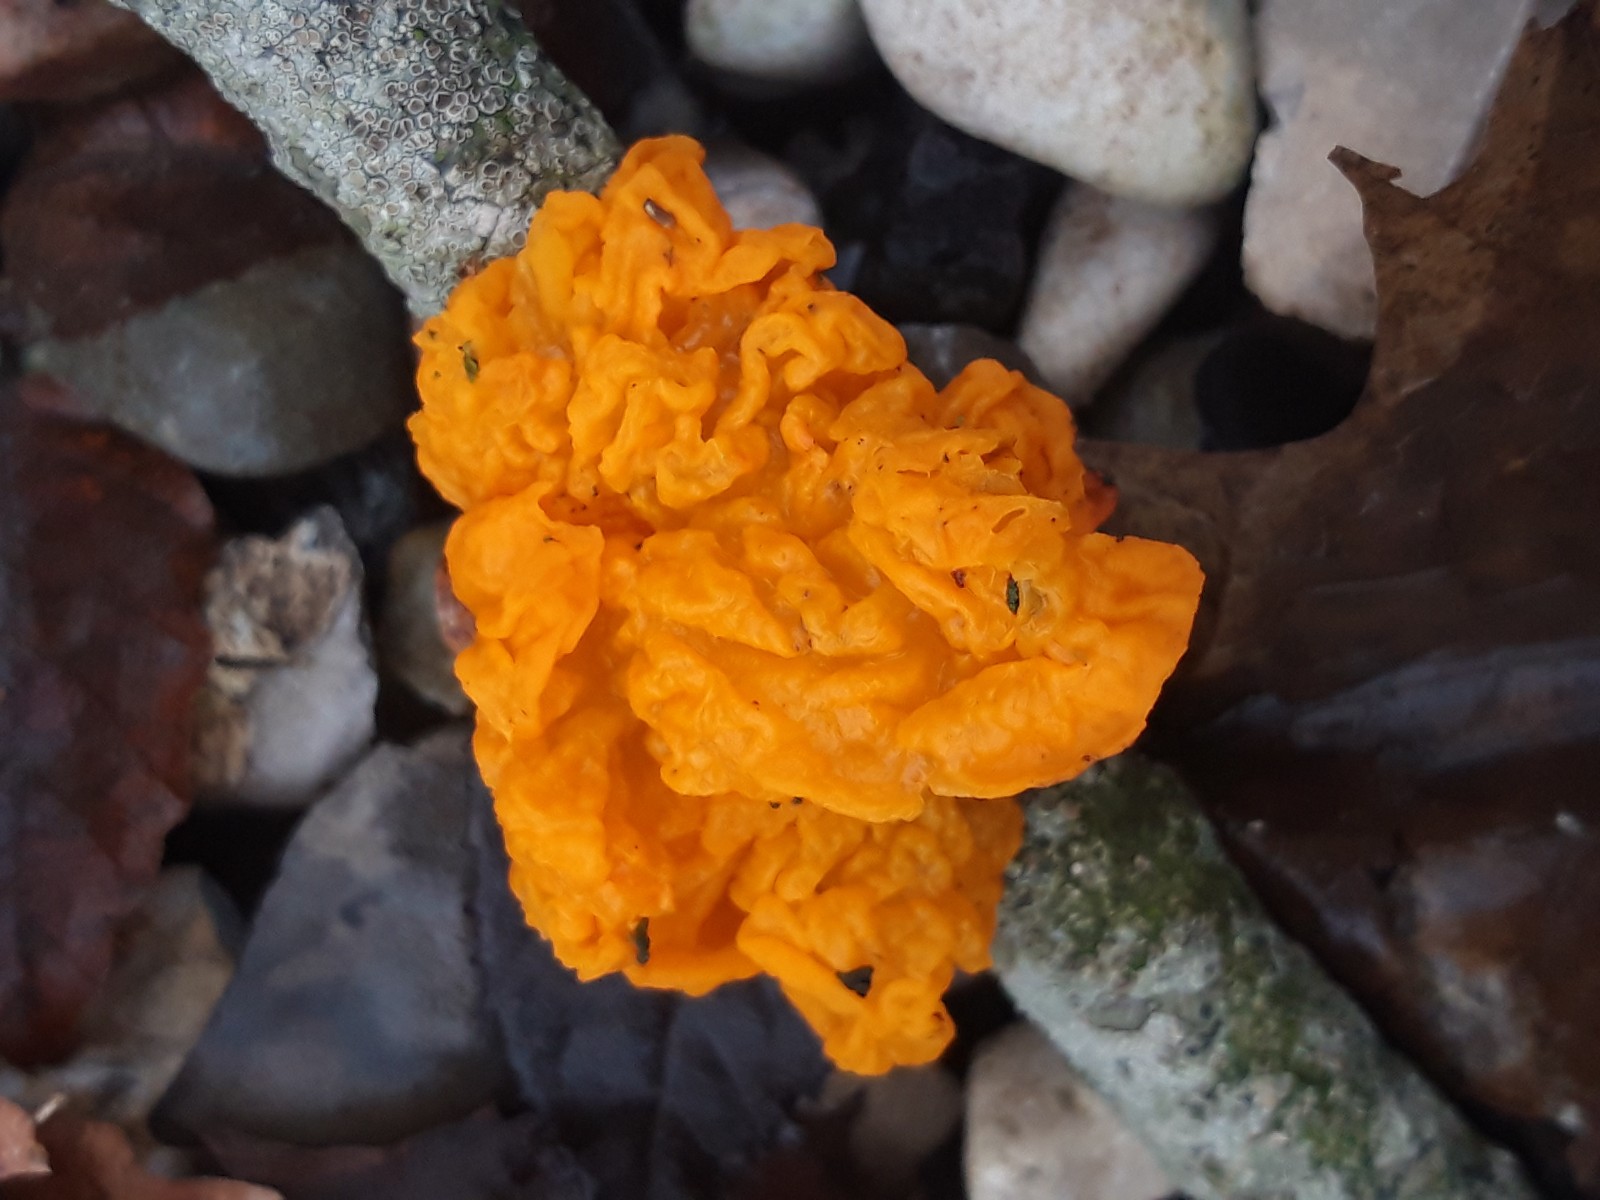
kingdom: Fungi
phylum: Basidiomycota
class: Tremellomycetes
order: Tremellales
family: Tremellaceae
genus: Tremella
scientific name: Tremella mesenterica
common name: gul bævresvamp
